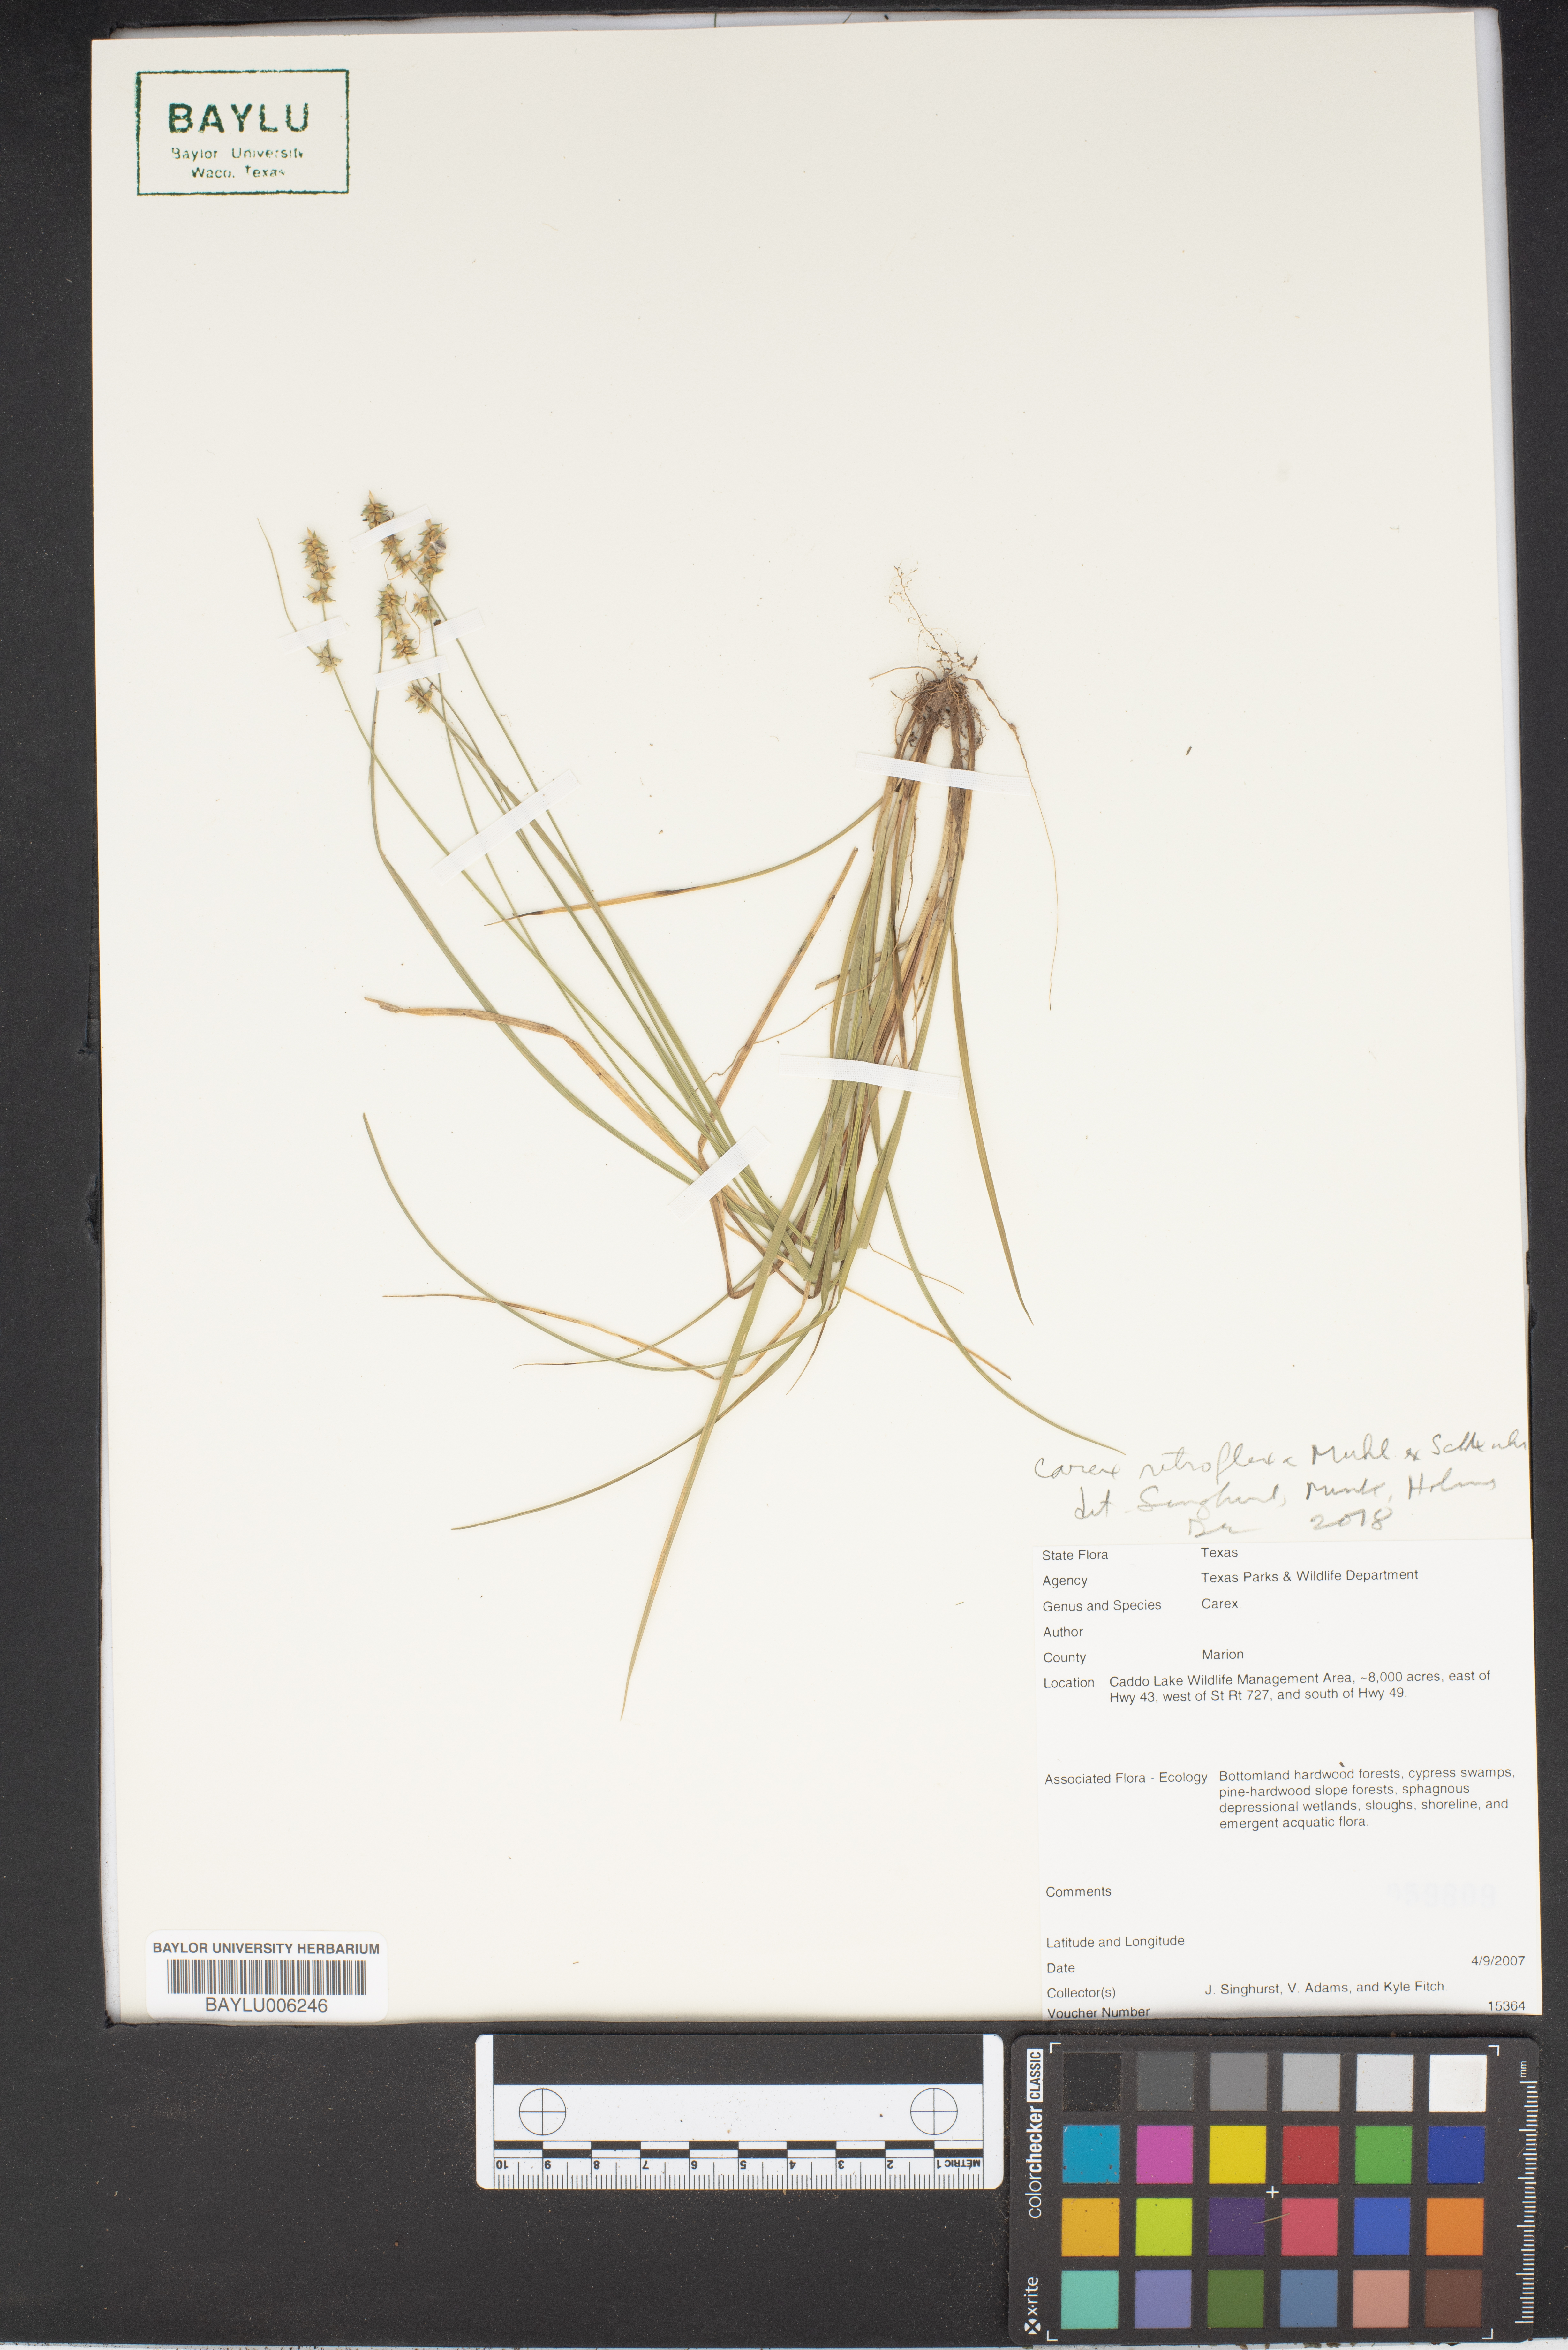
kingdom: Plantae
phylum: Tracheophyta
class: Liliopsida
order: Poales
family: Cyperaceae
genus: Carex
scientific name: Carex retroflexa
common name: Reflexed sedge
